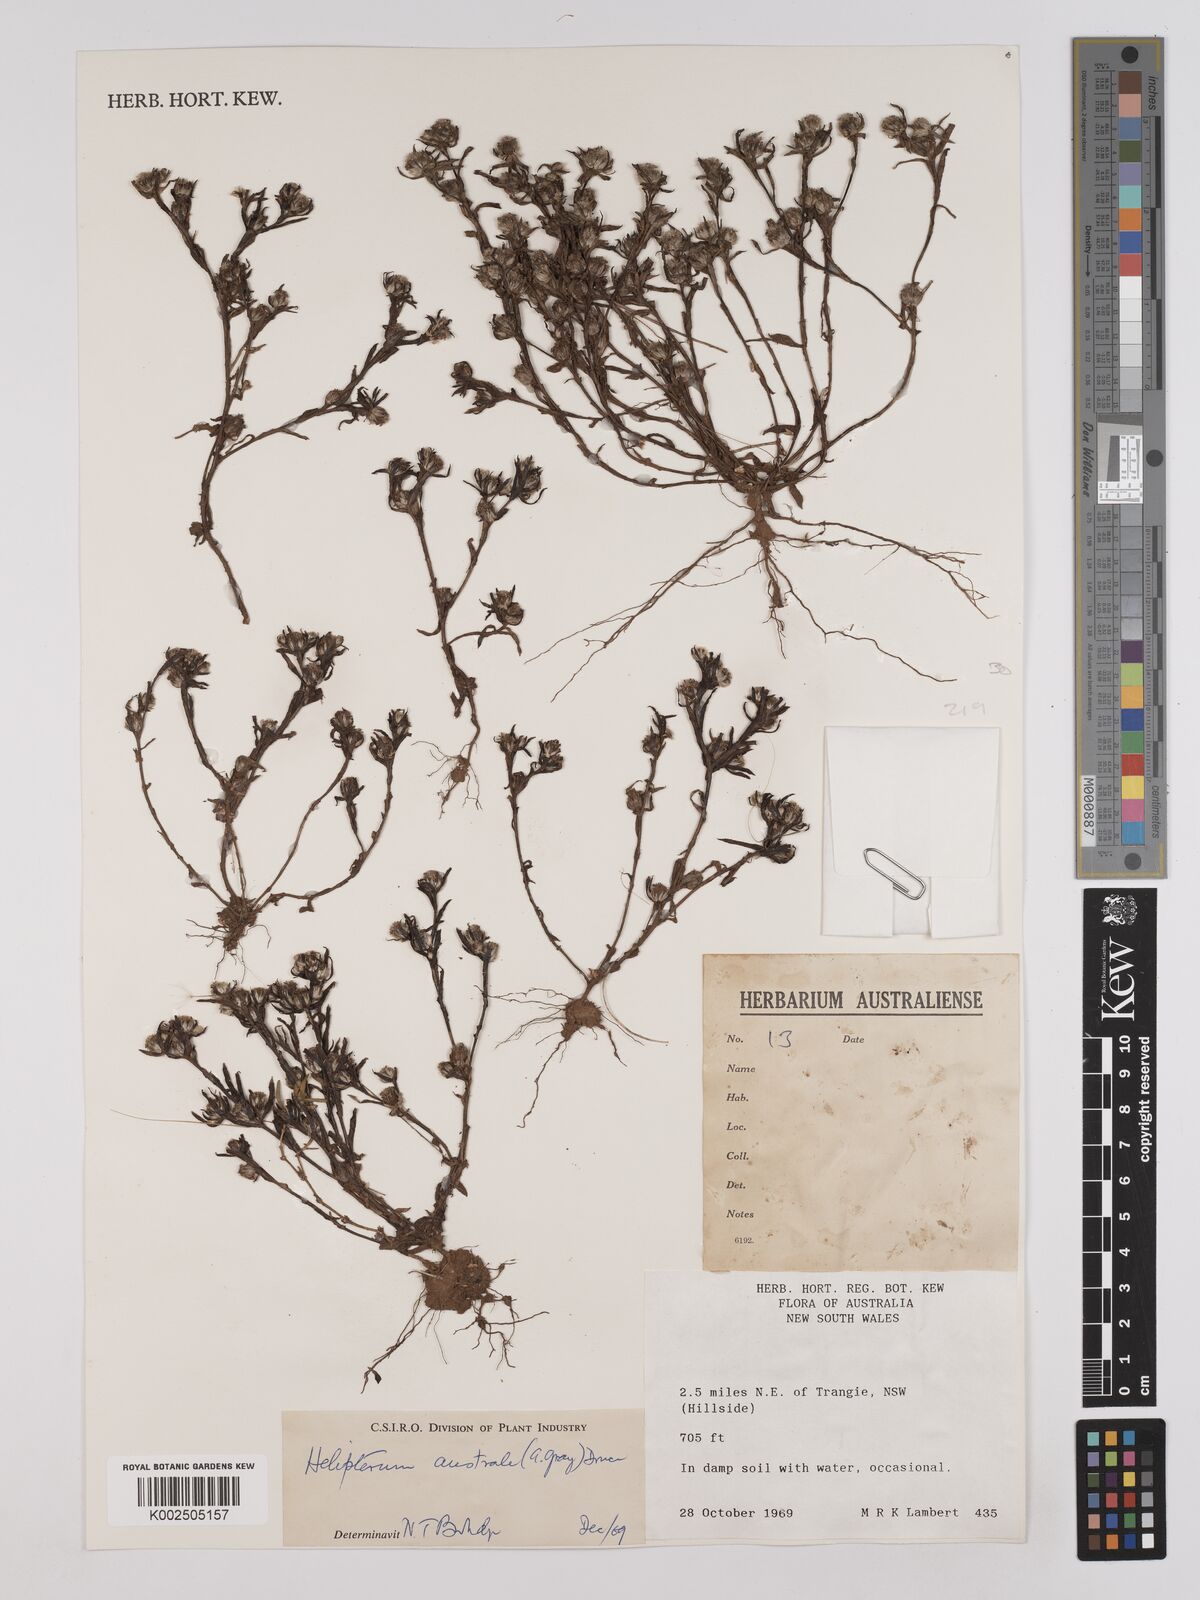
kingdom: Plantae
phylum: Tracheophyta
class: Magnoliopsida
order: Asterales
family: Asteraceae
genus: Triptilodiscus
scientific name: Triptilodiscus pygmaeus
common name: Common sunray
